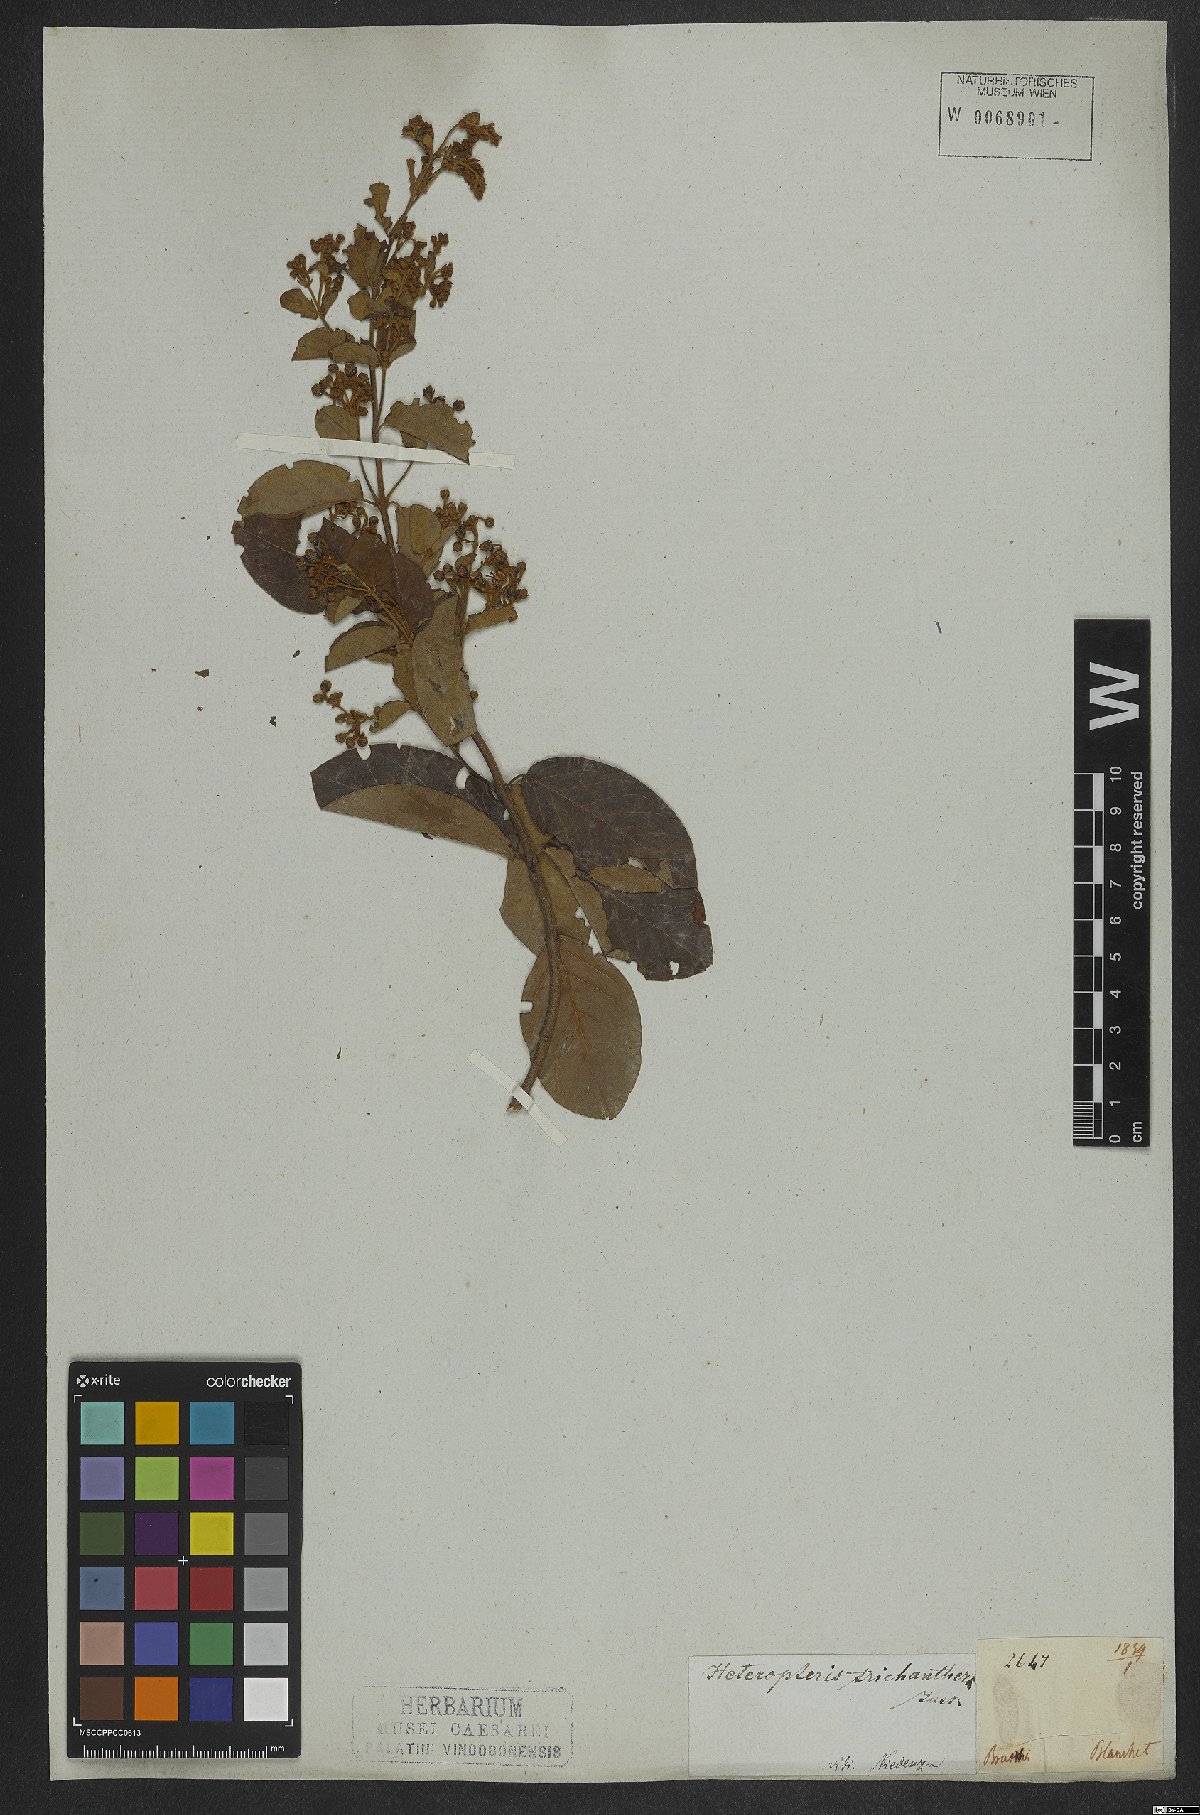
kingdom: Plantae
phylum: Tracheophyta
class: Magnoliopsida
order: Malpighiales
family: Malpighiaceae
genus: Heteropterys
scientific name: Heteropterys trichanthera
